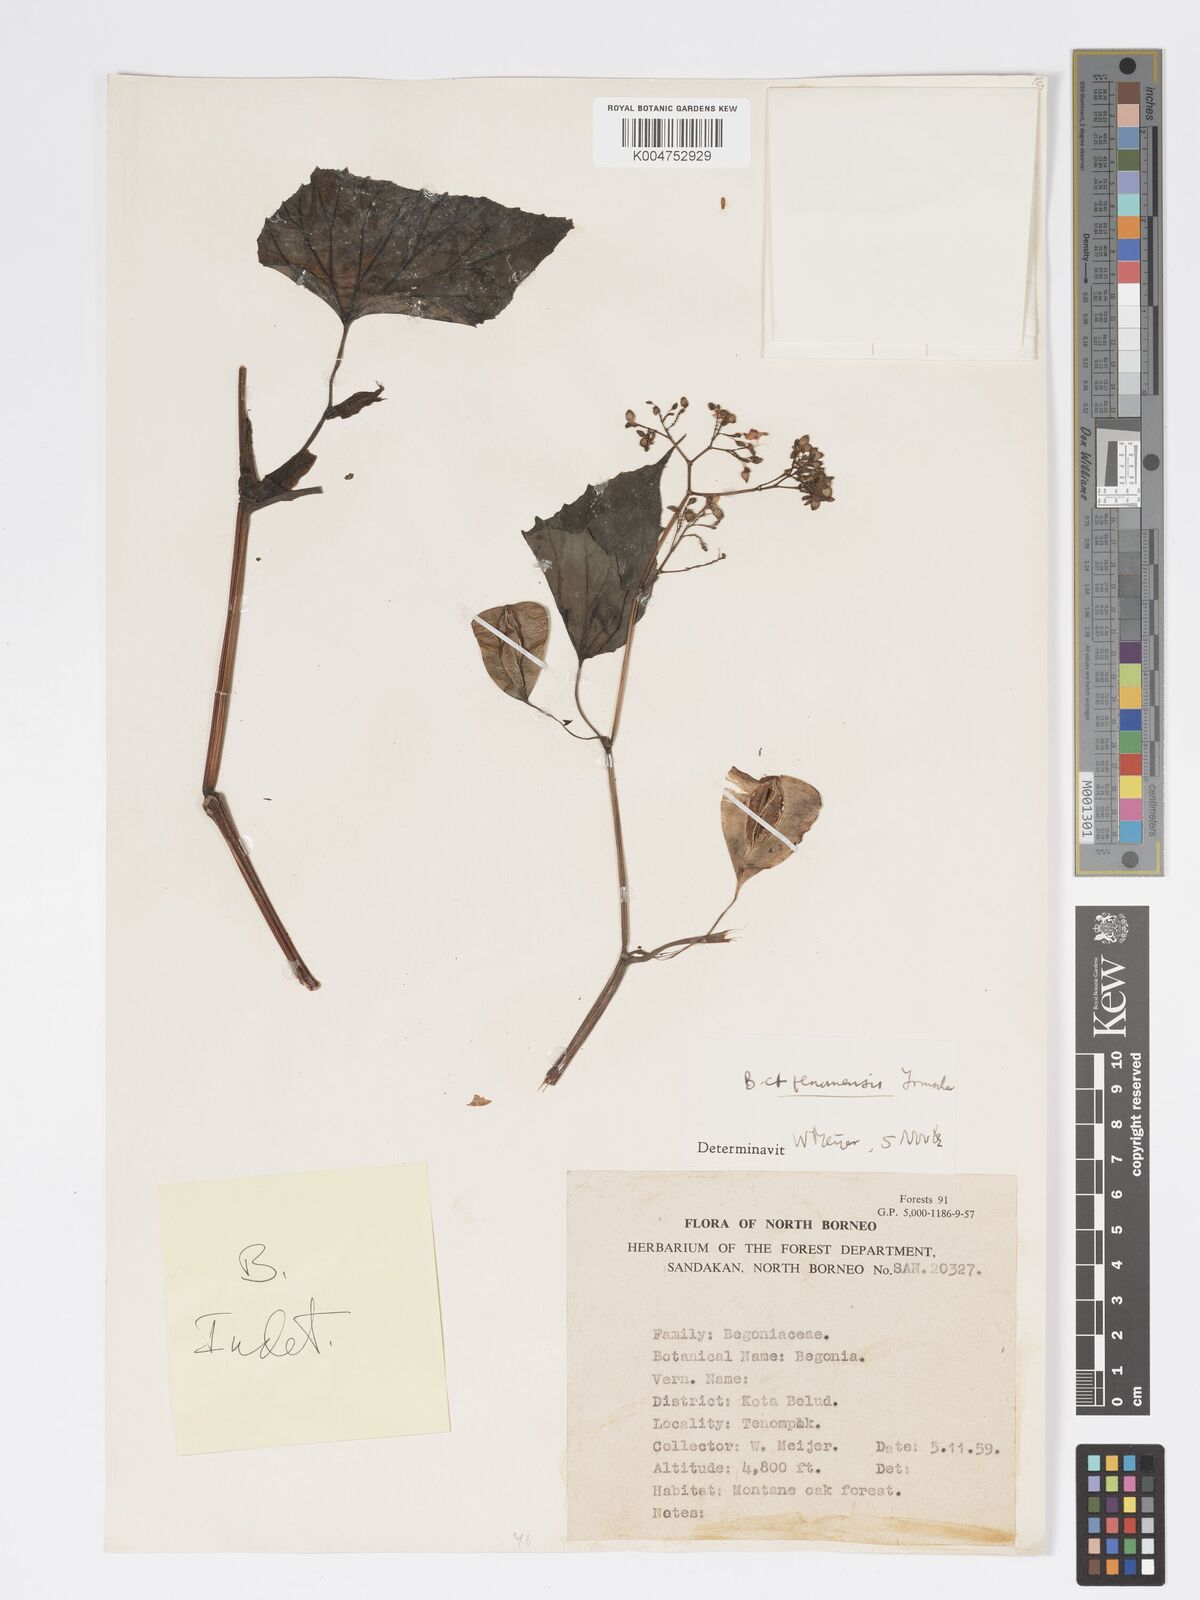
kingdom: Plantae
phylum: Tracheophyta
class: Magnoliopsida
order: Cucurbitales
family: Begoniaceae
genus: Begonia
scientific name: Begonia
